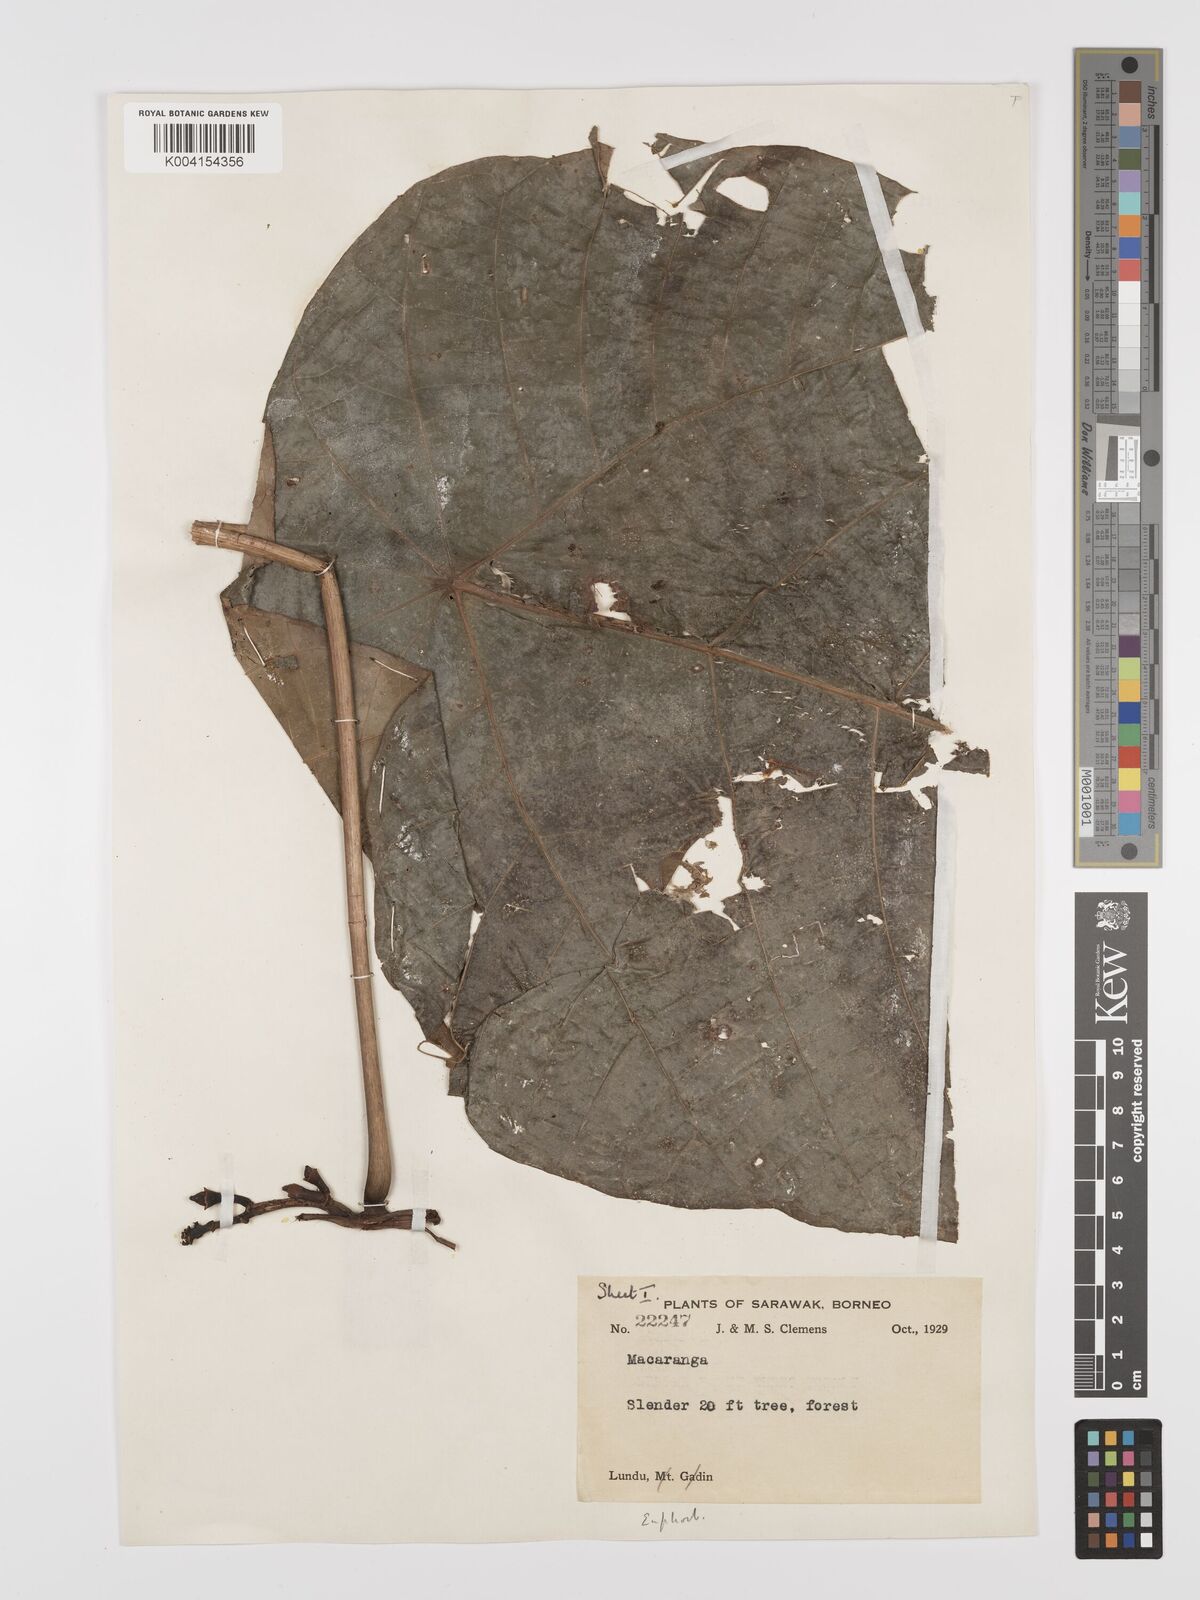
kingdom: Plantae
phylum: Tracheophyta
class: Magnoliopsida
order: Malpighiales
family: Euphorbiaceae
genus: Macaranga
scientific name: Macaranga umbrosa
